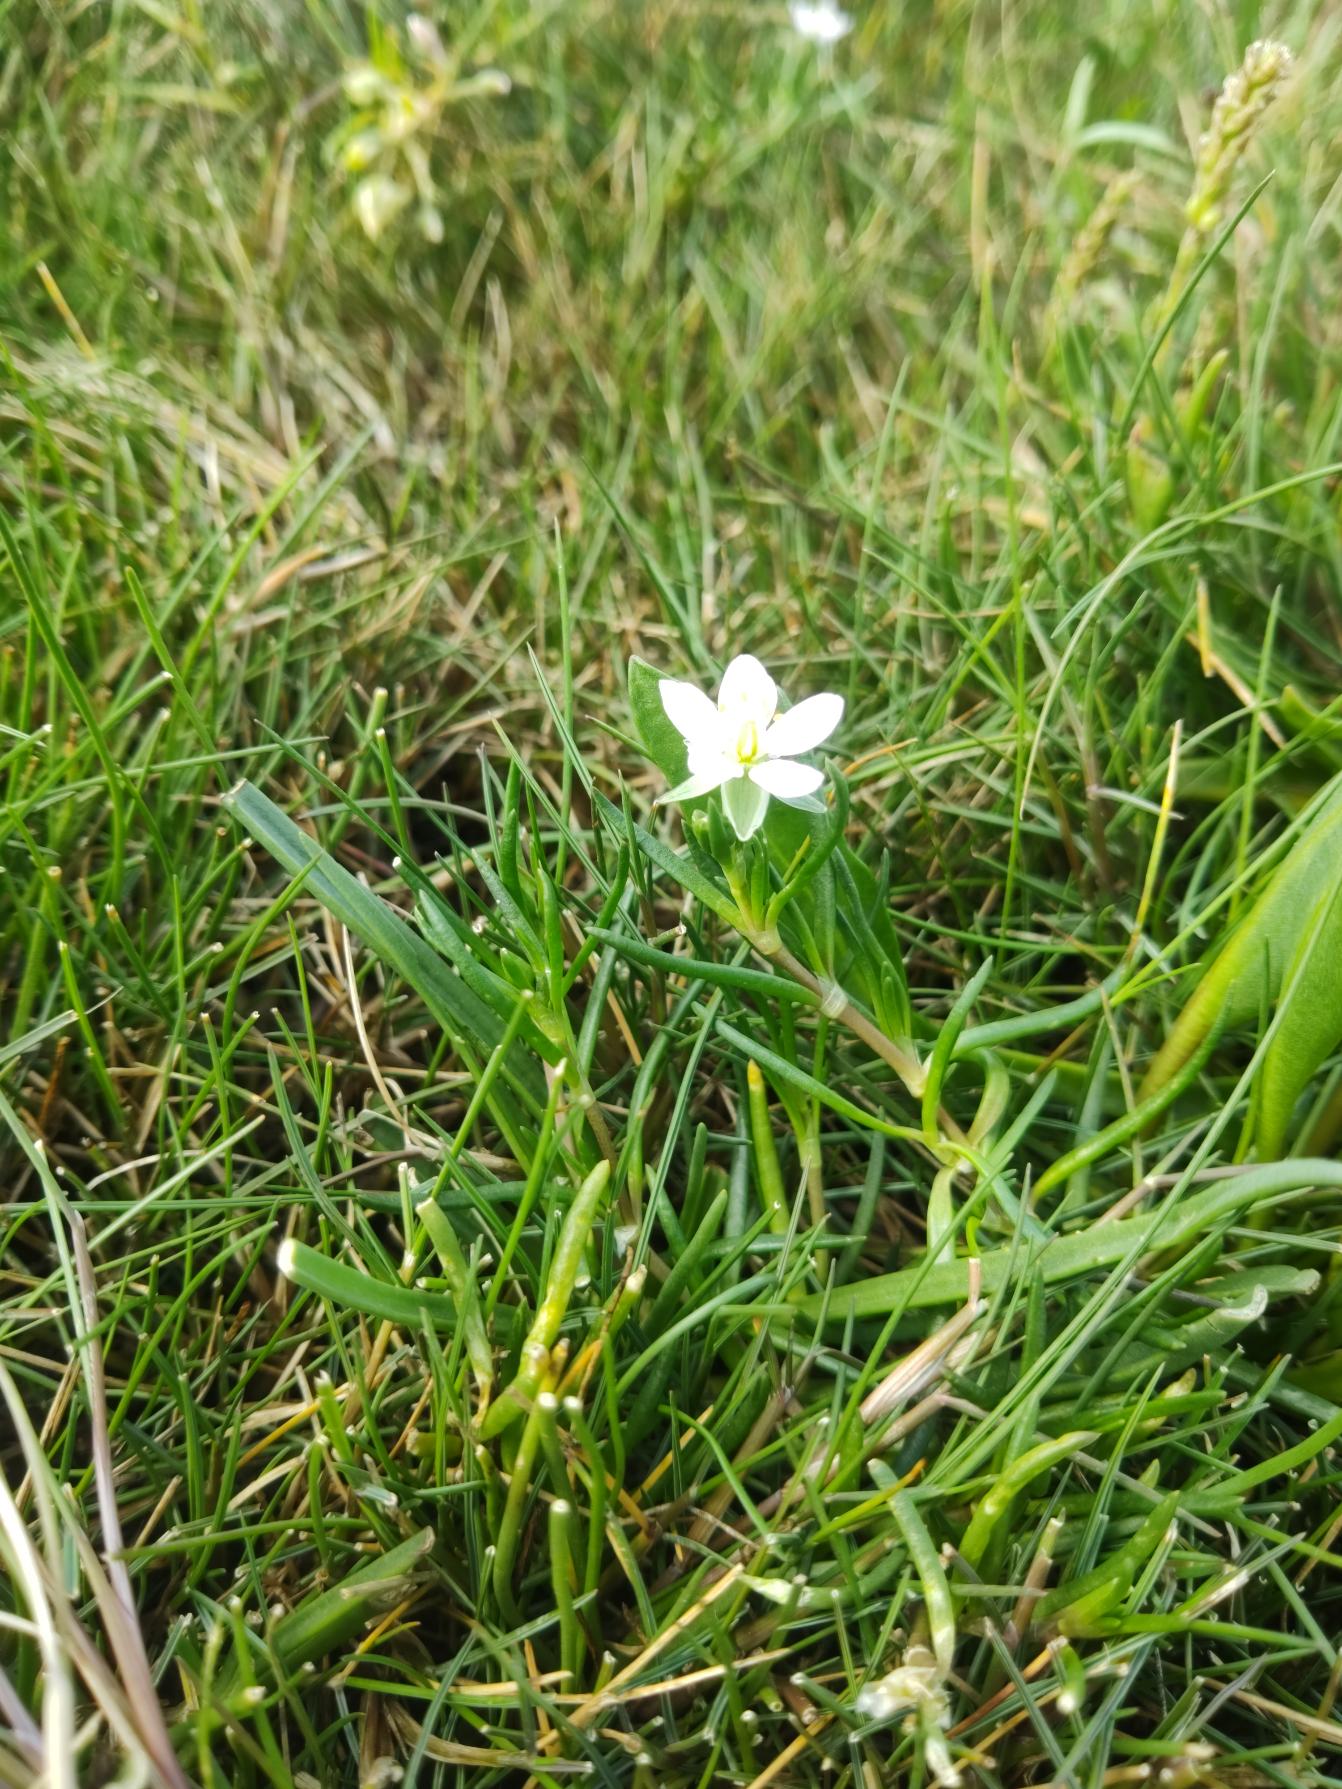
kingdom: Plantae
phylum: Tracheophyta
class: Magnoliopsida
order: Caryophyllales
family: Caryophyllaceae
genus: Spergularia
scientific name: Spergularia media
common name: Vingefrøet hindeknæ
